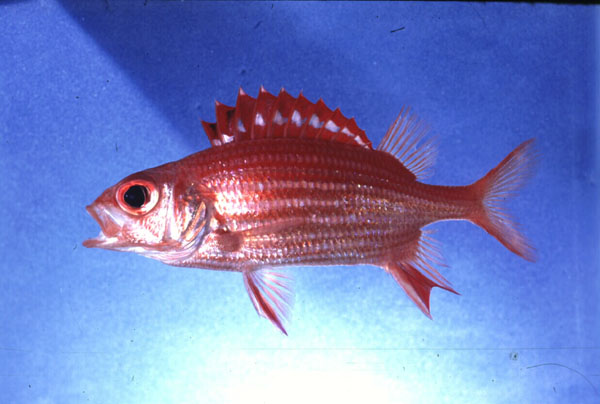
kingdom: Animalia
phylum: Chordata
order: Beryciformes
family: Holocentridae
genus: Sargocentron
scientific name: Sargocentron ittodai
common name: Samurai squirrelfish
